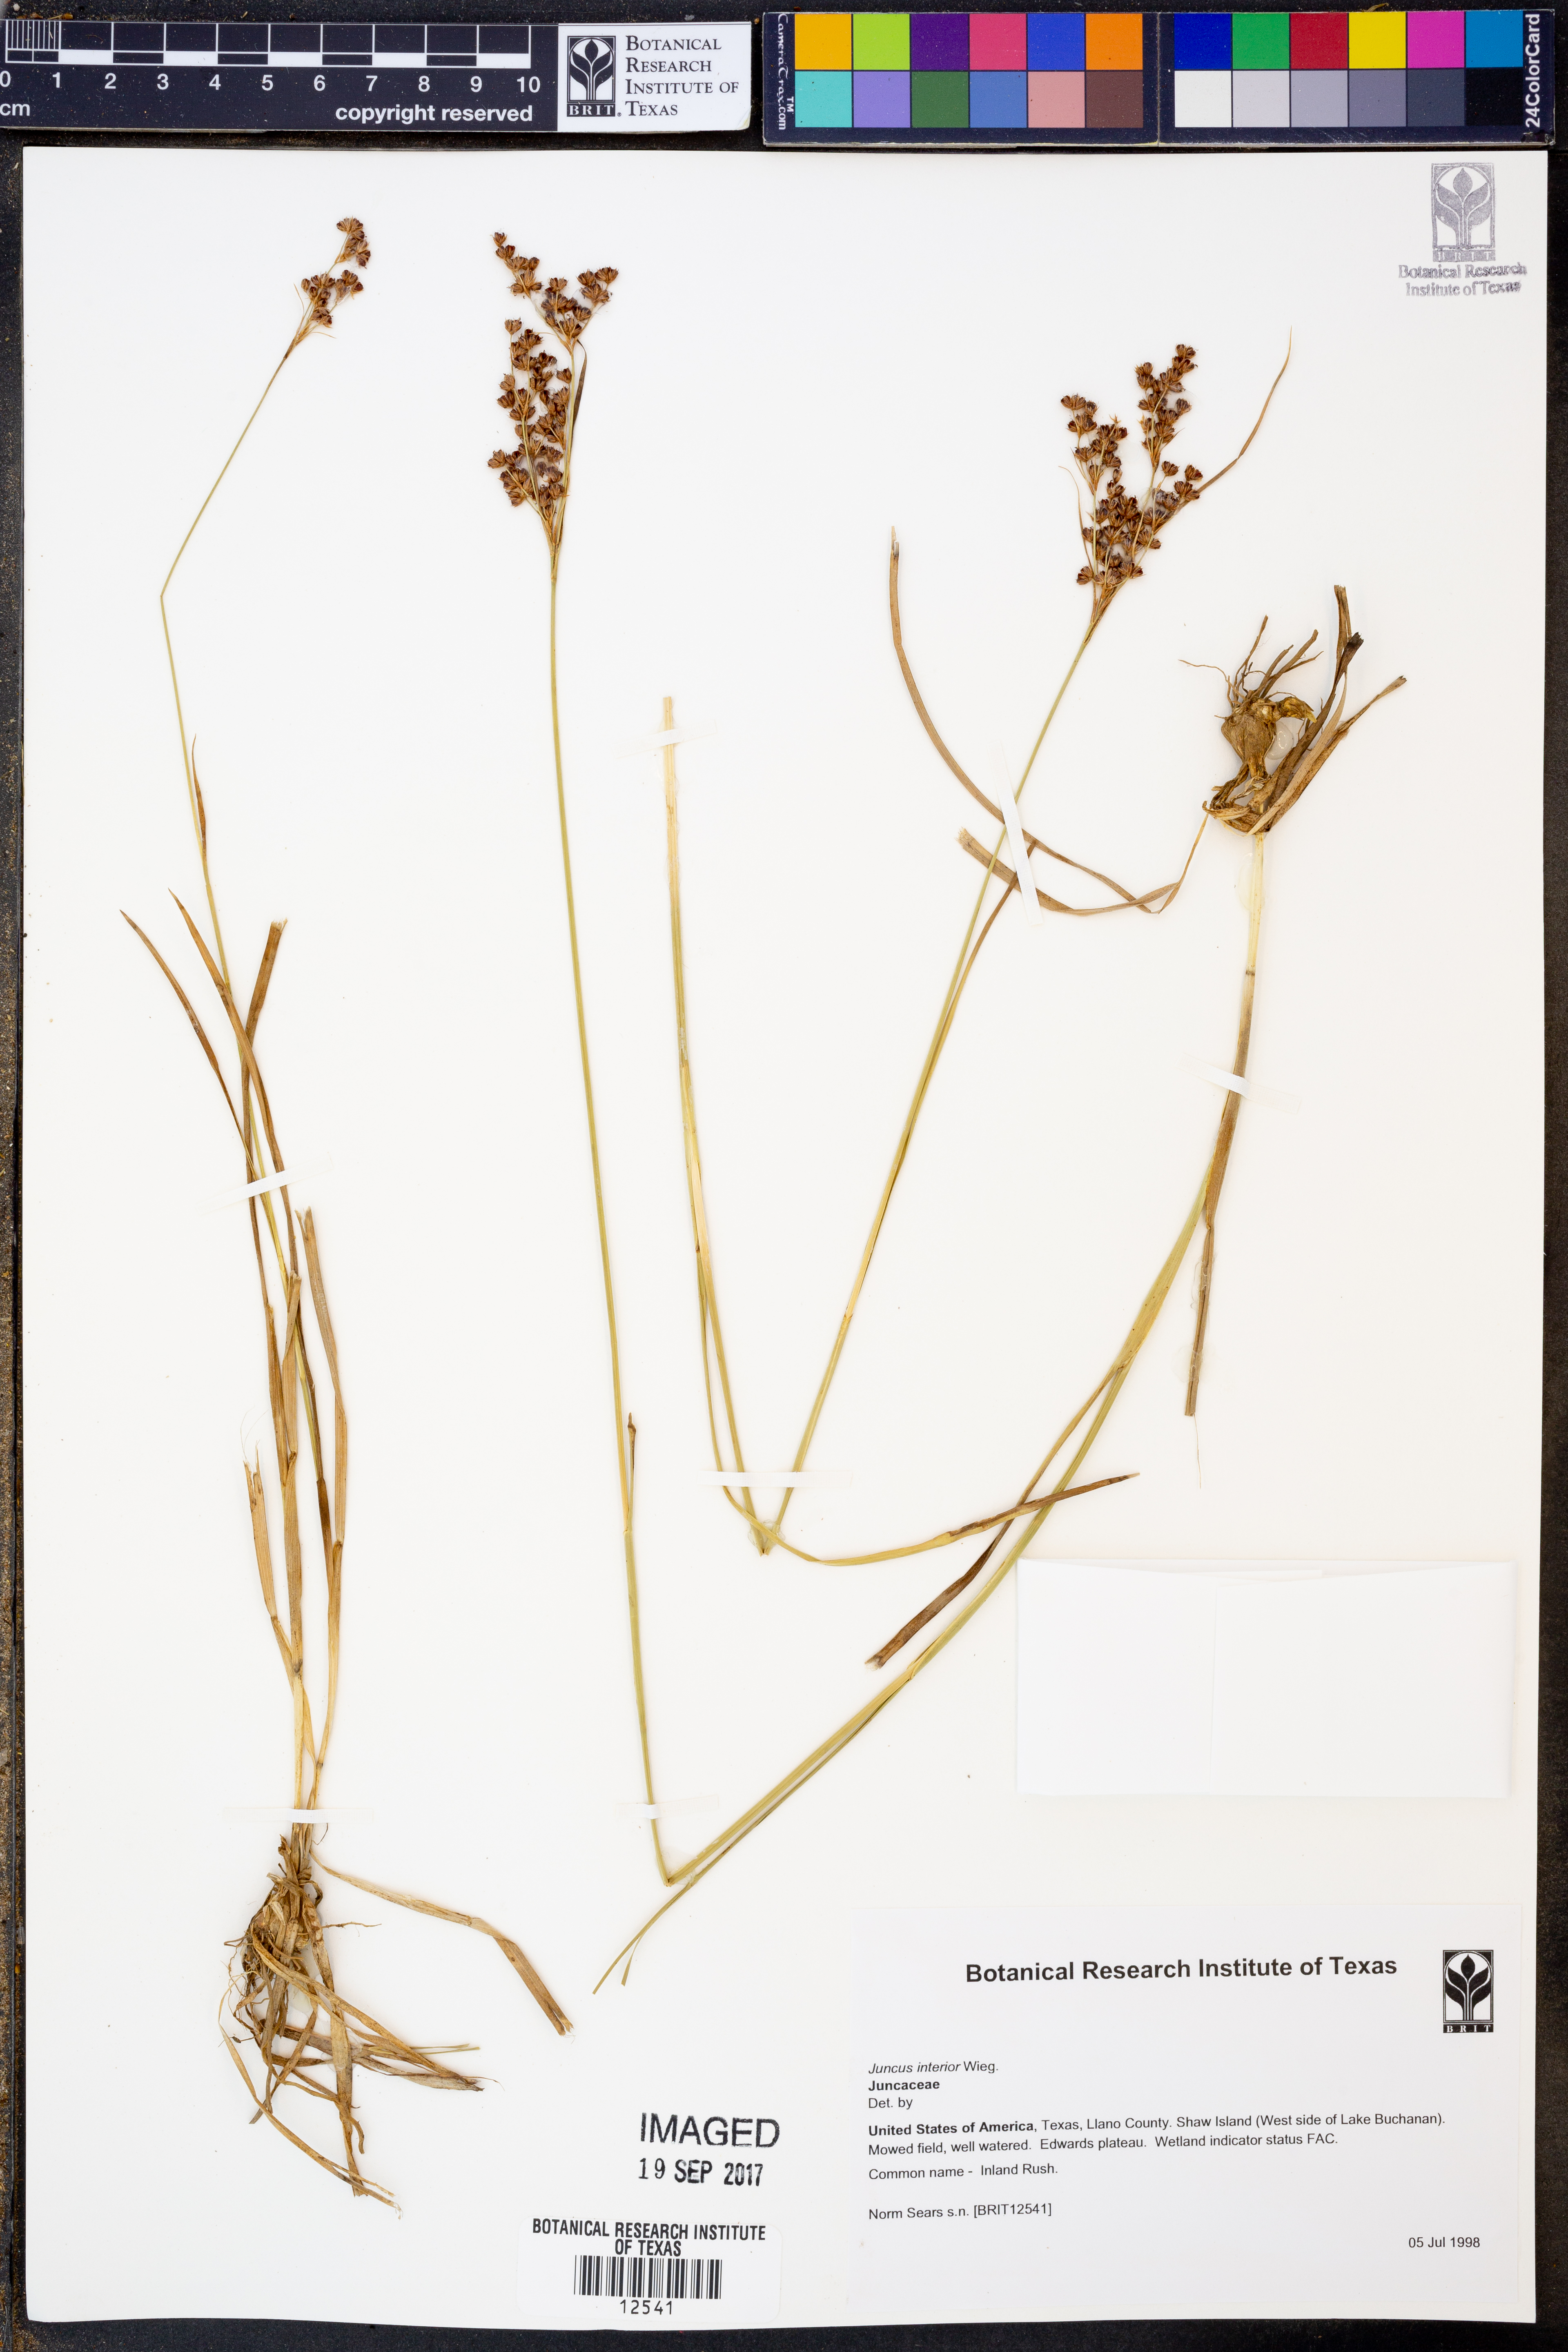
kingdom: Plantae
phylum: Tracheophyta
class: Liliopsida
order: Poales
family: Juncaceae
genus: Juncus
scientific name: Juncus interior
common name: Interior rush
